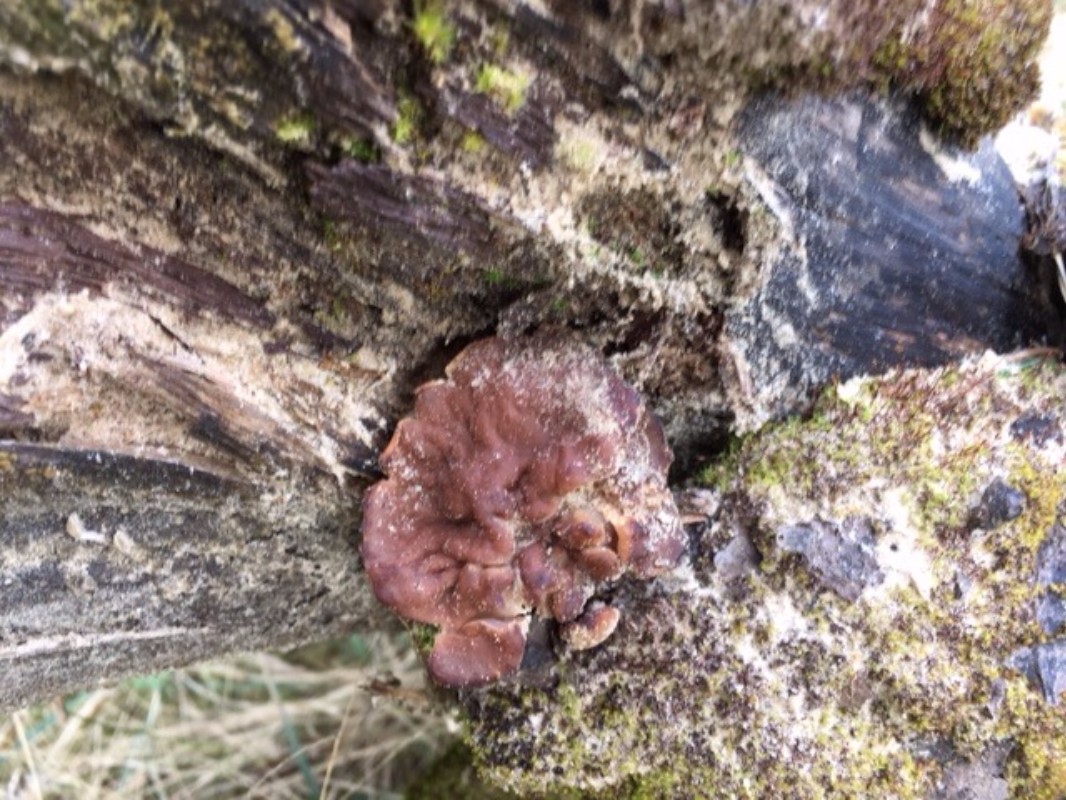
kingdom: Fungi
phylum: Ascomycota
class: Pezizomycetes
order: Pezizales
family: Discinaceae
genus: Gyromitra
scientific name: Gyromitra
